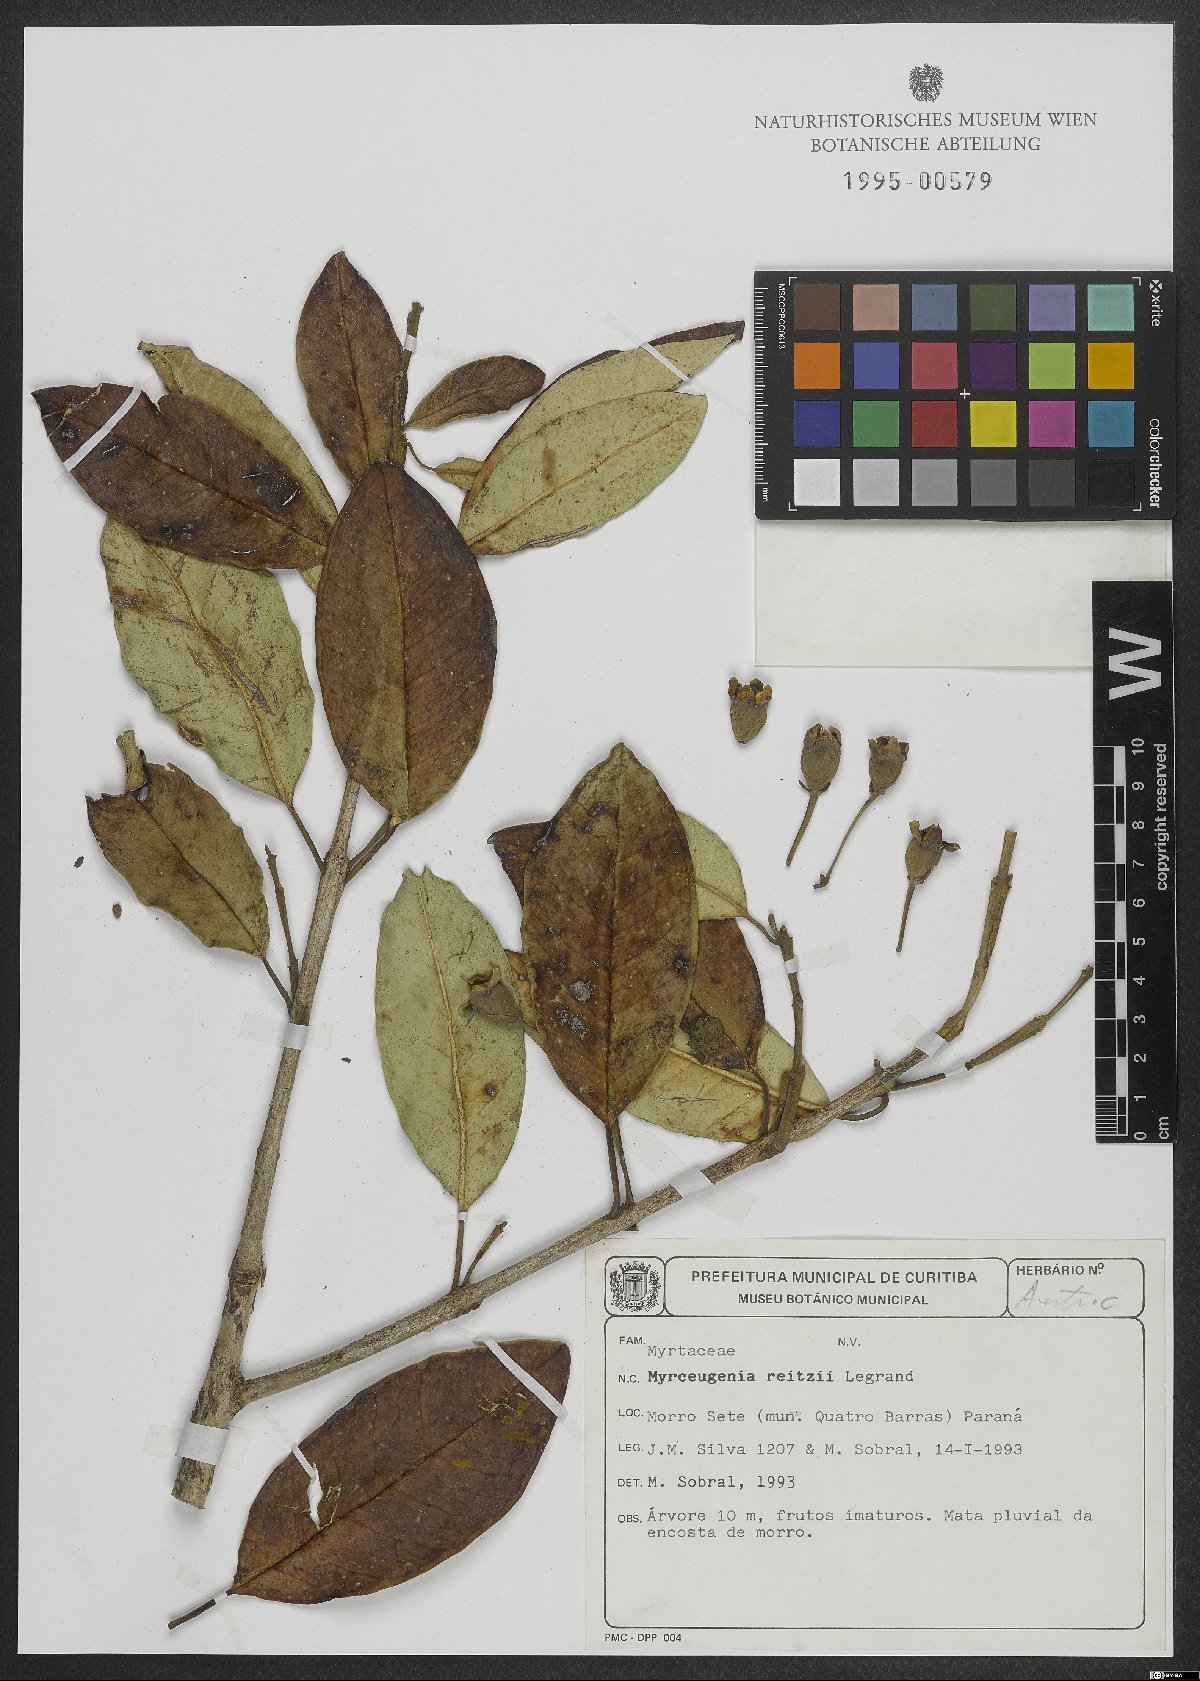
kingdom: Plantae
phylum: Tracheophyta
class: Magnoliopsida
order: Myrtales
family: Myrtaceae
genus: Myrceugenia
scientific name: Myrceugenia reitzii
